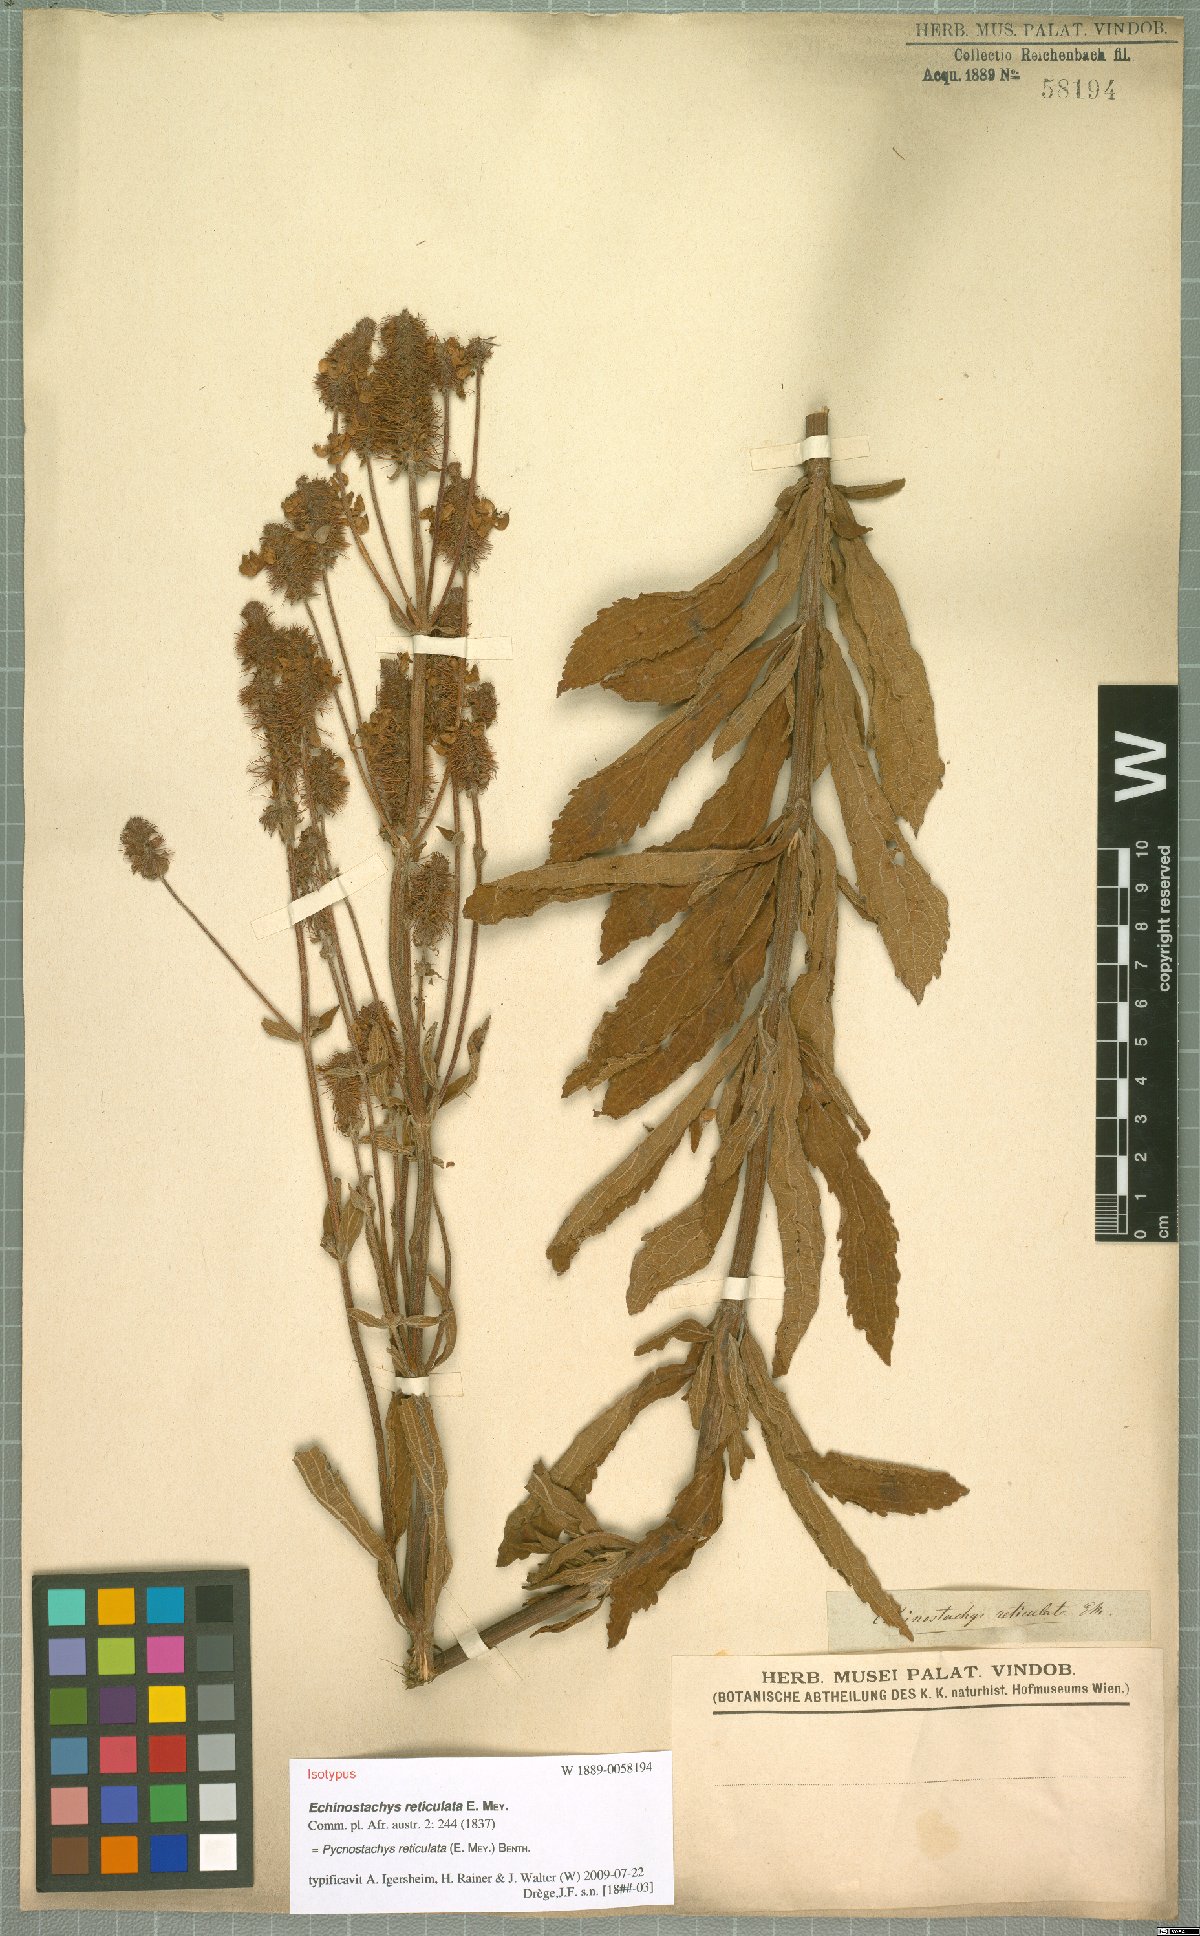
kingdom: Plantae
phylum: Tracheophyta
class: Magnoliopsida
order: Lamiales
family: Lamiaceae
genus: Coleus
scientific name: Coleus kirkii
